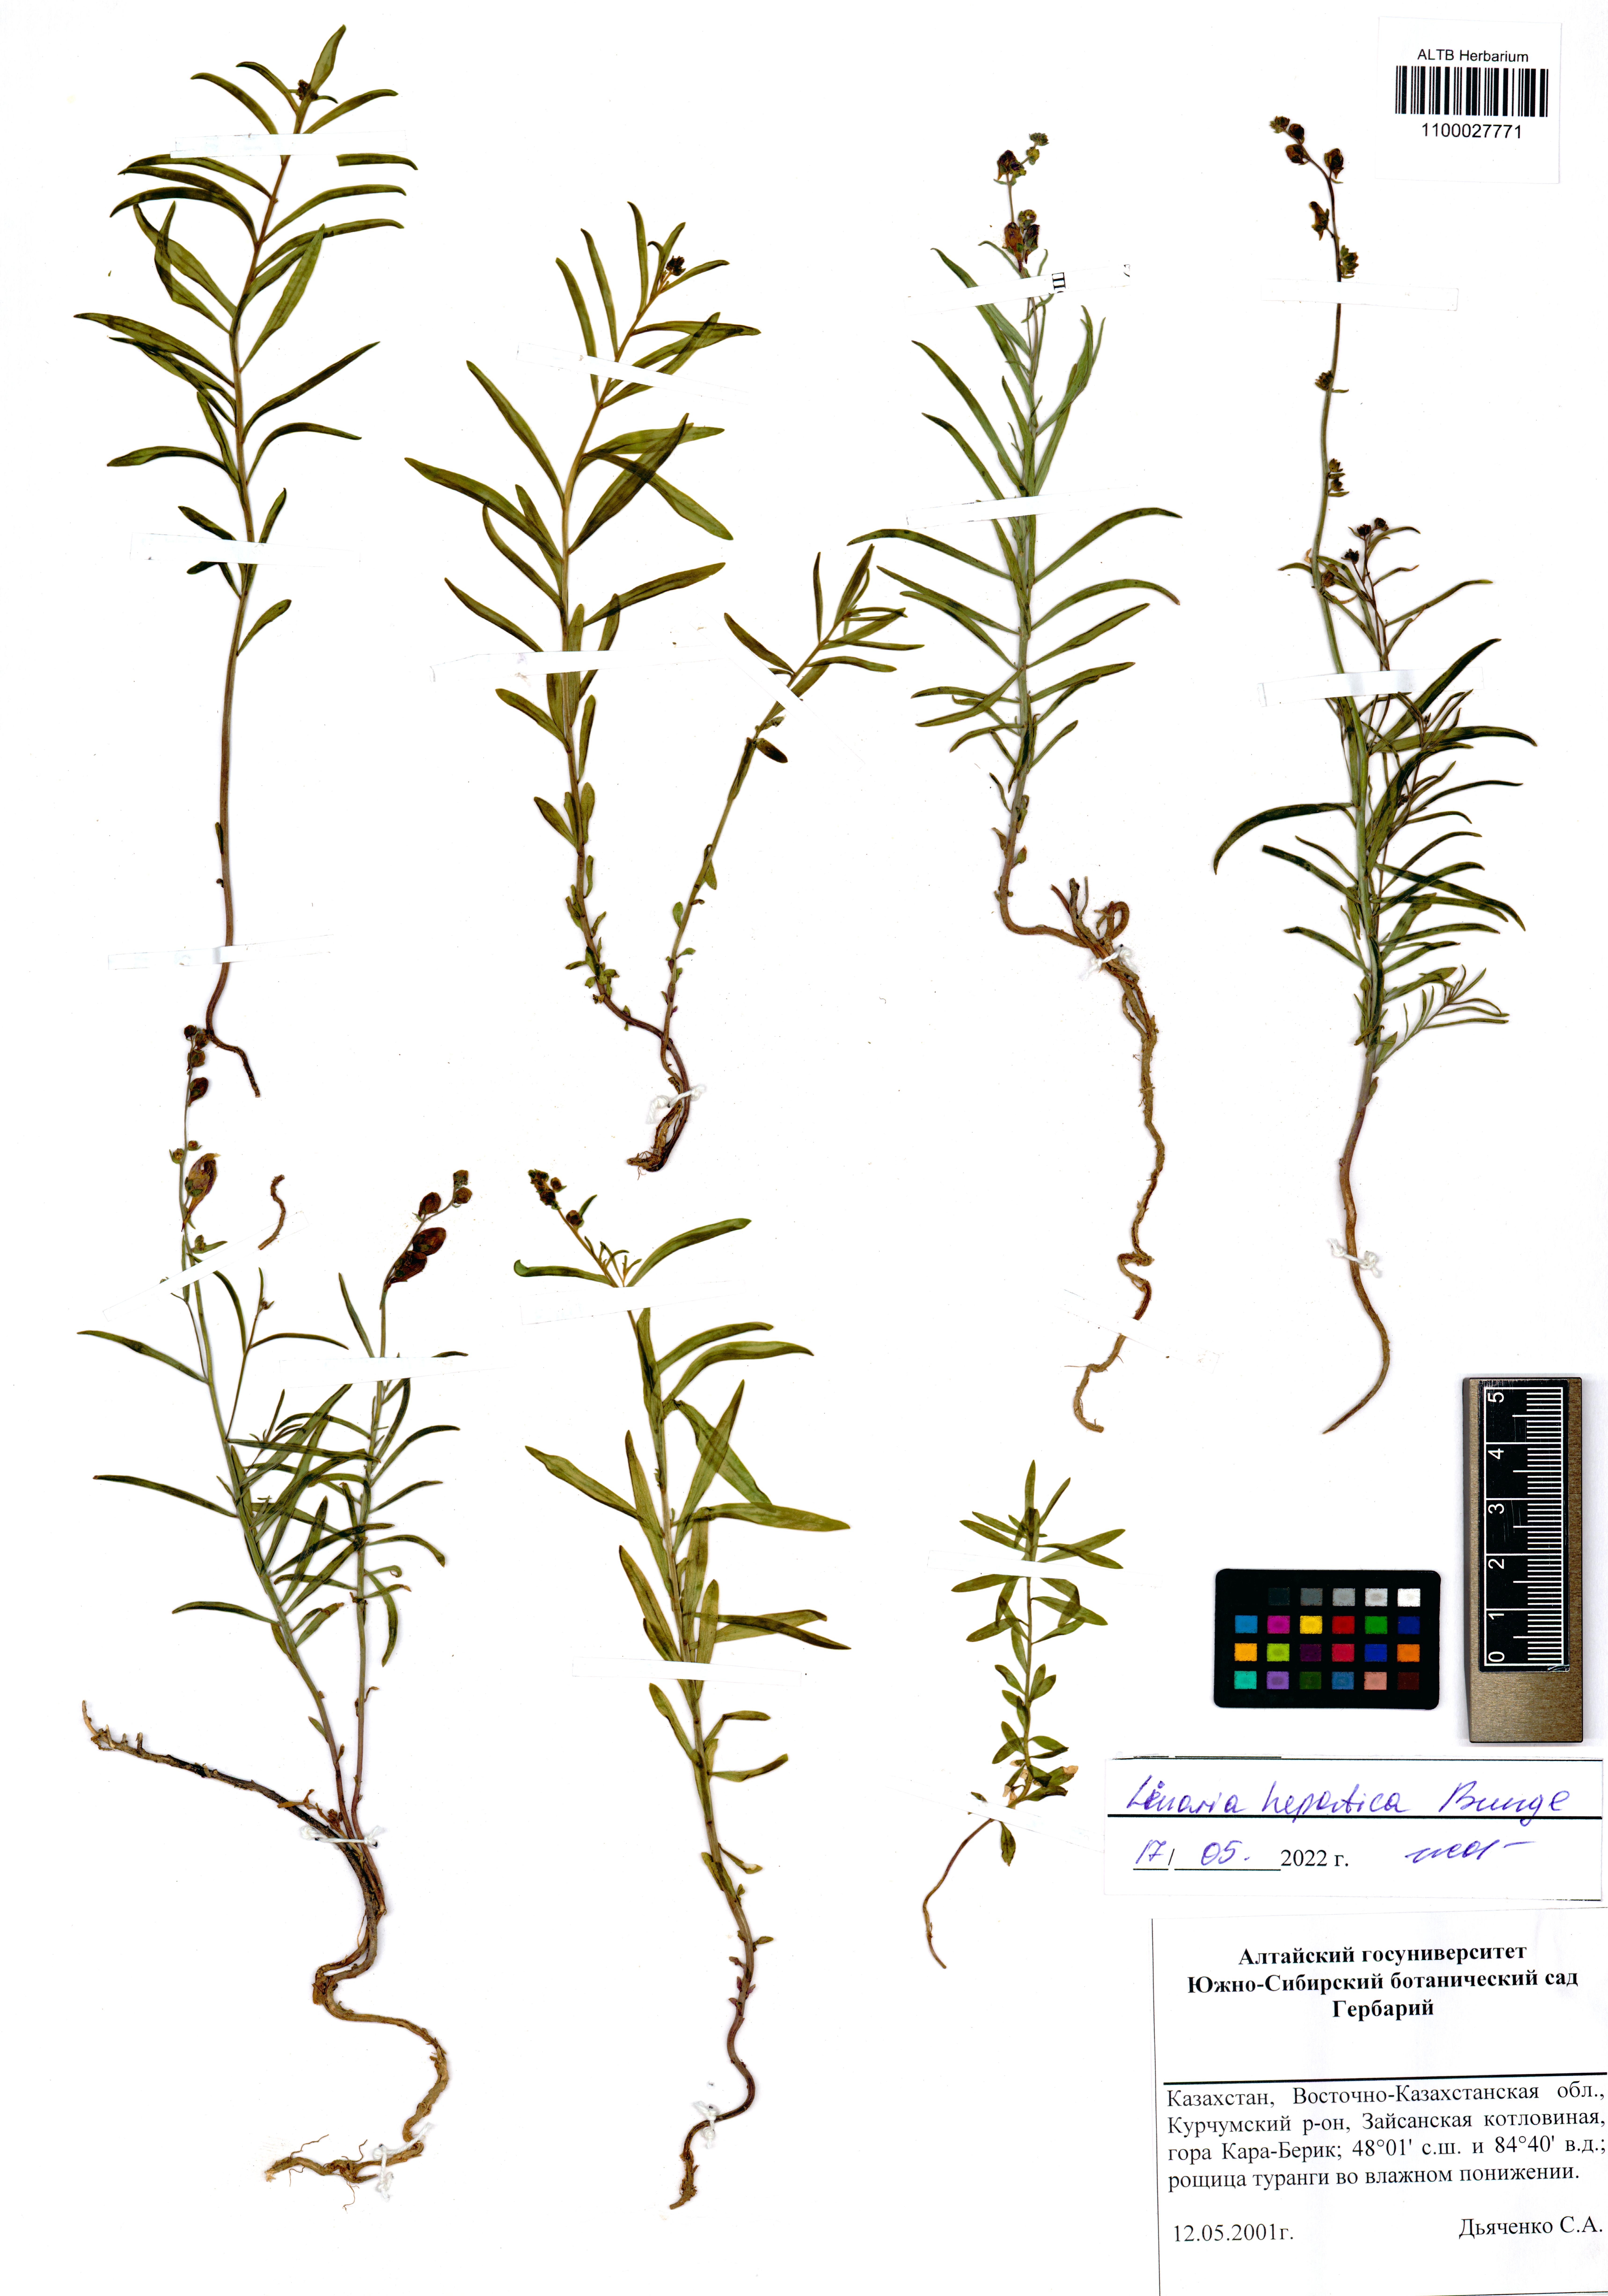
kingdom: Plantae
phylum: Tracheophyta
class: Magnoliopsida
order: Lamiales
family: Plantaginaceae
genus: Linaria
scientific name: Linaria hepatica
